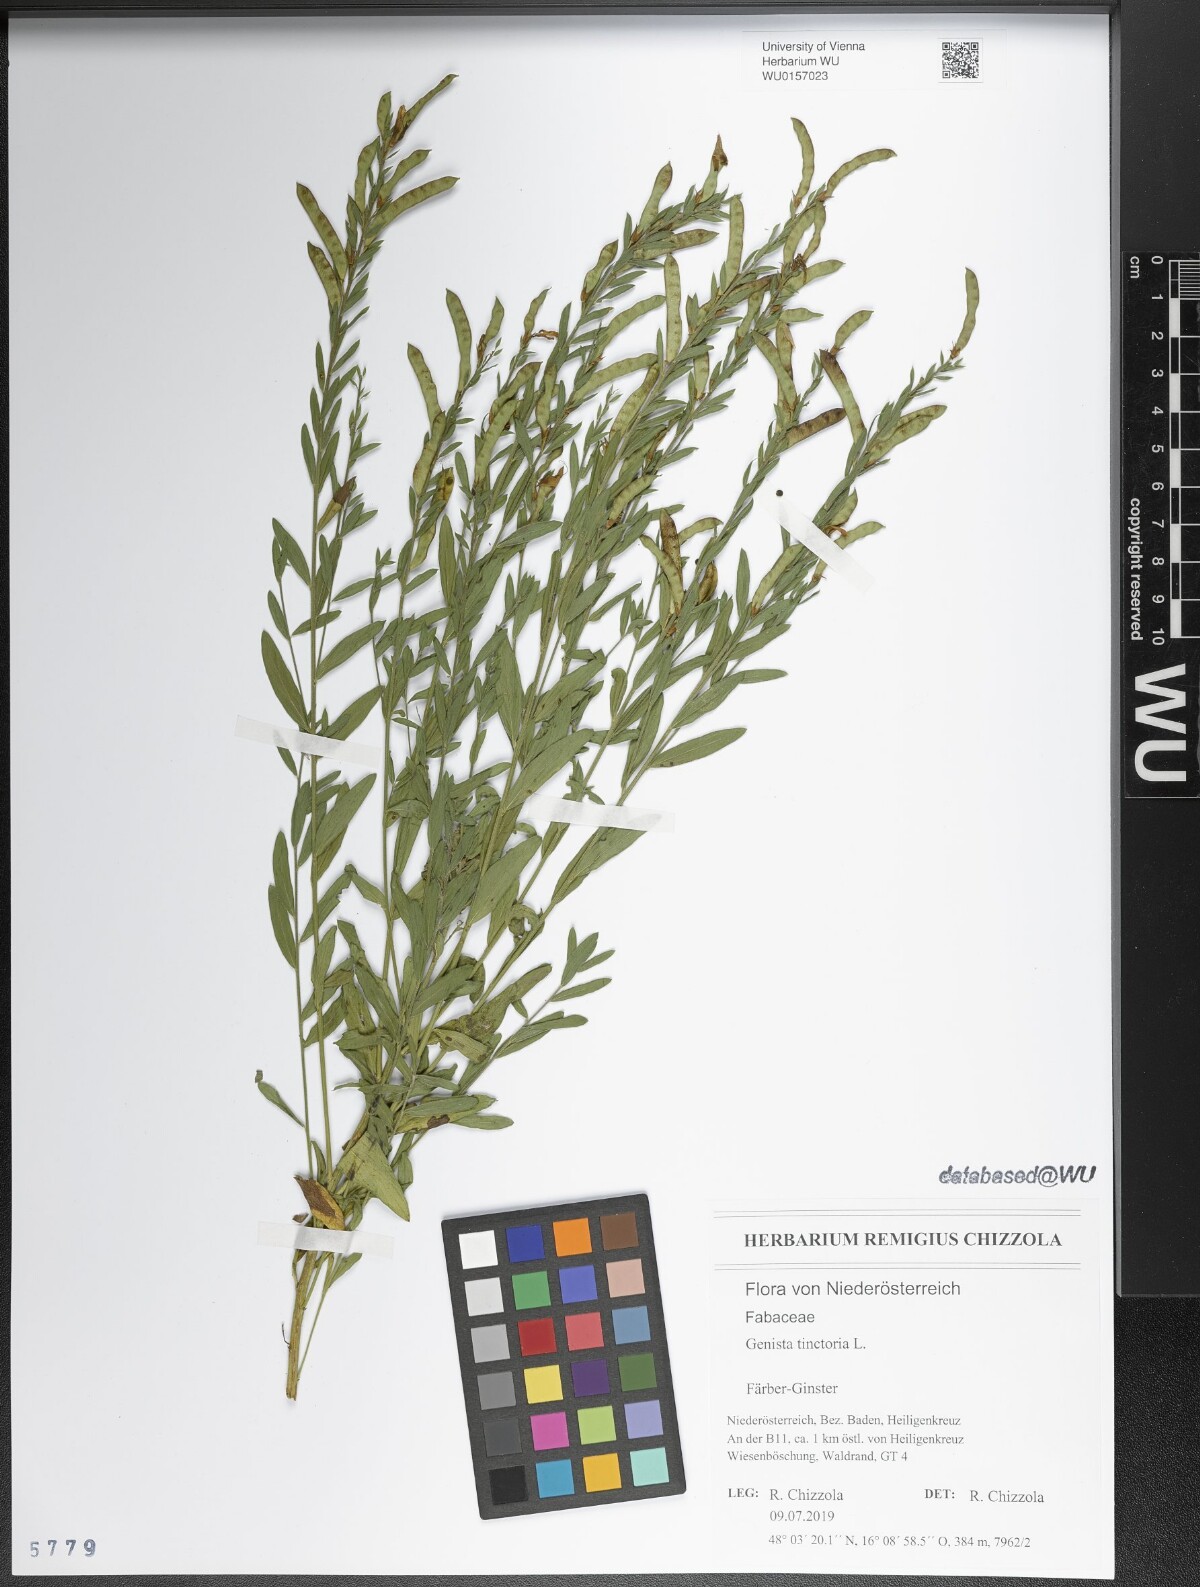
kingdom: Plantae
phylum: Tracheophyta
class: Magnoliopsida
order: Fabales
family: Fabaceae
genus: Genista
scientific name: Genista tinctoria
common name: Dyer's greenweed
